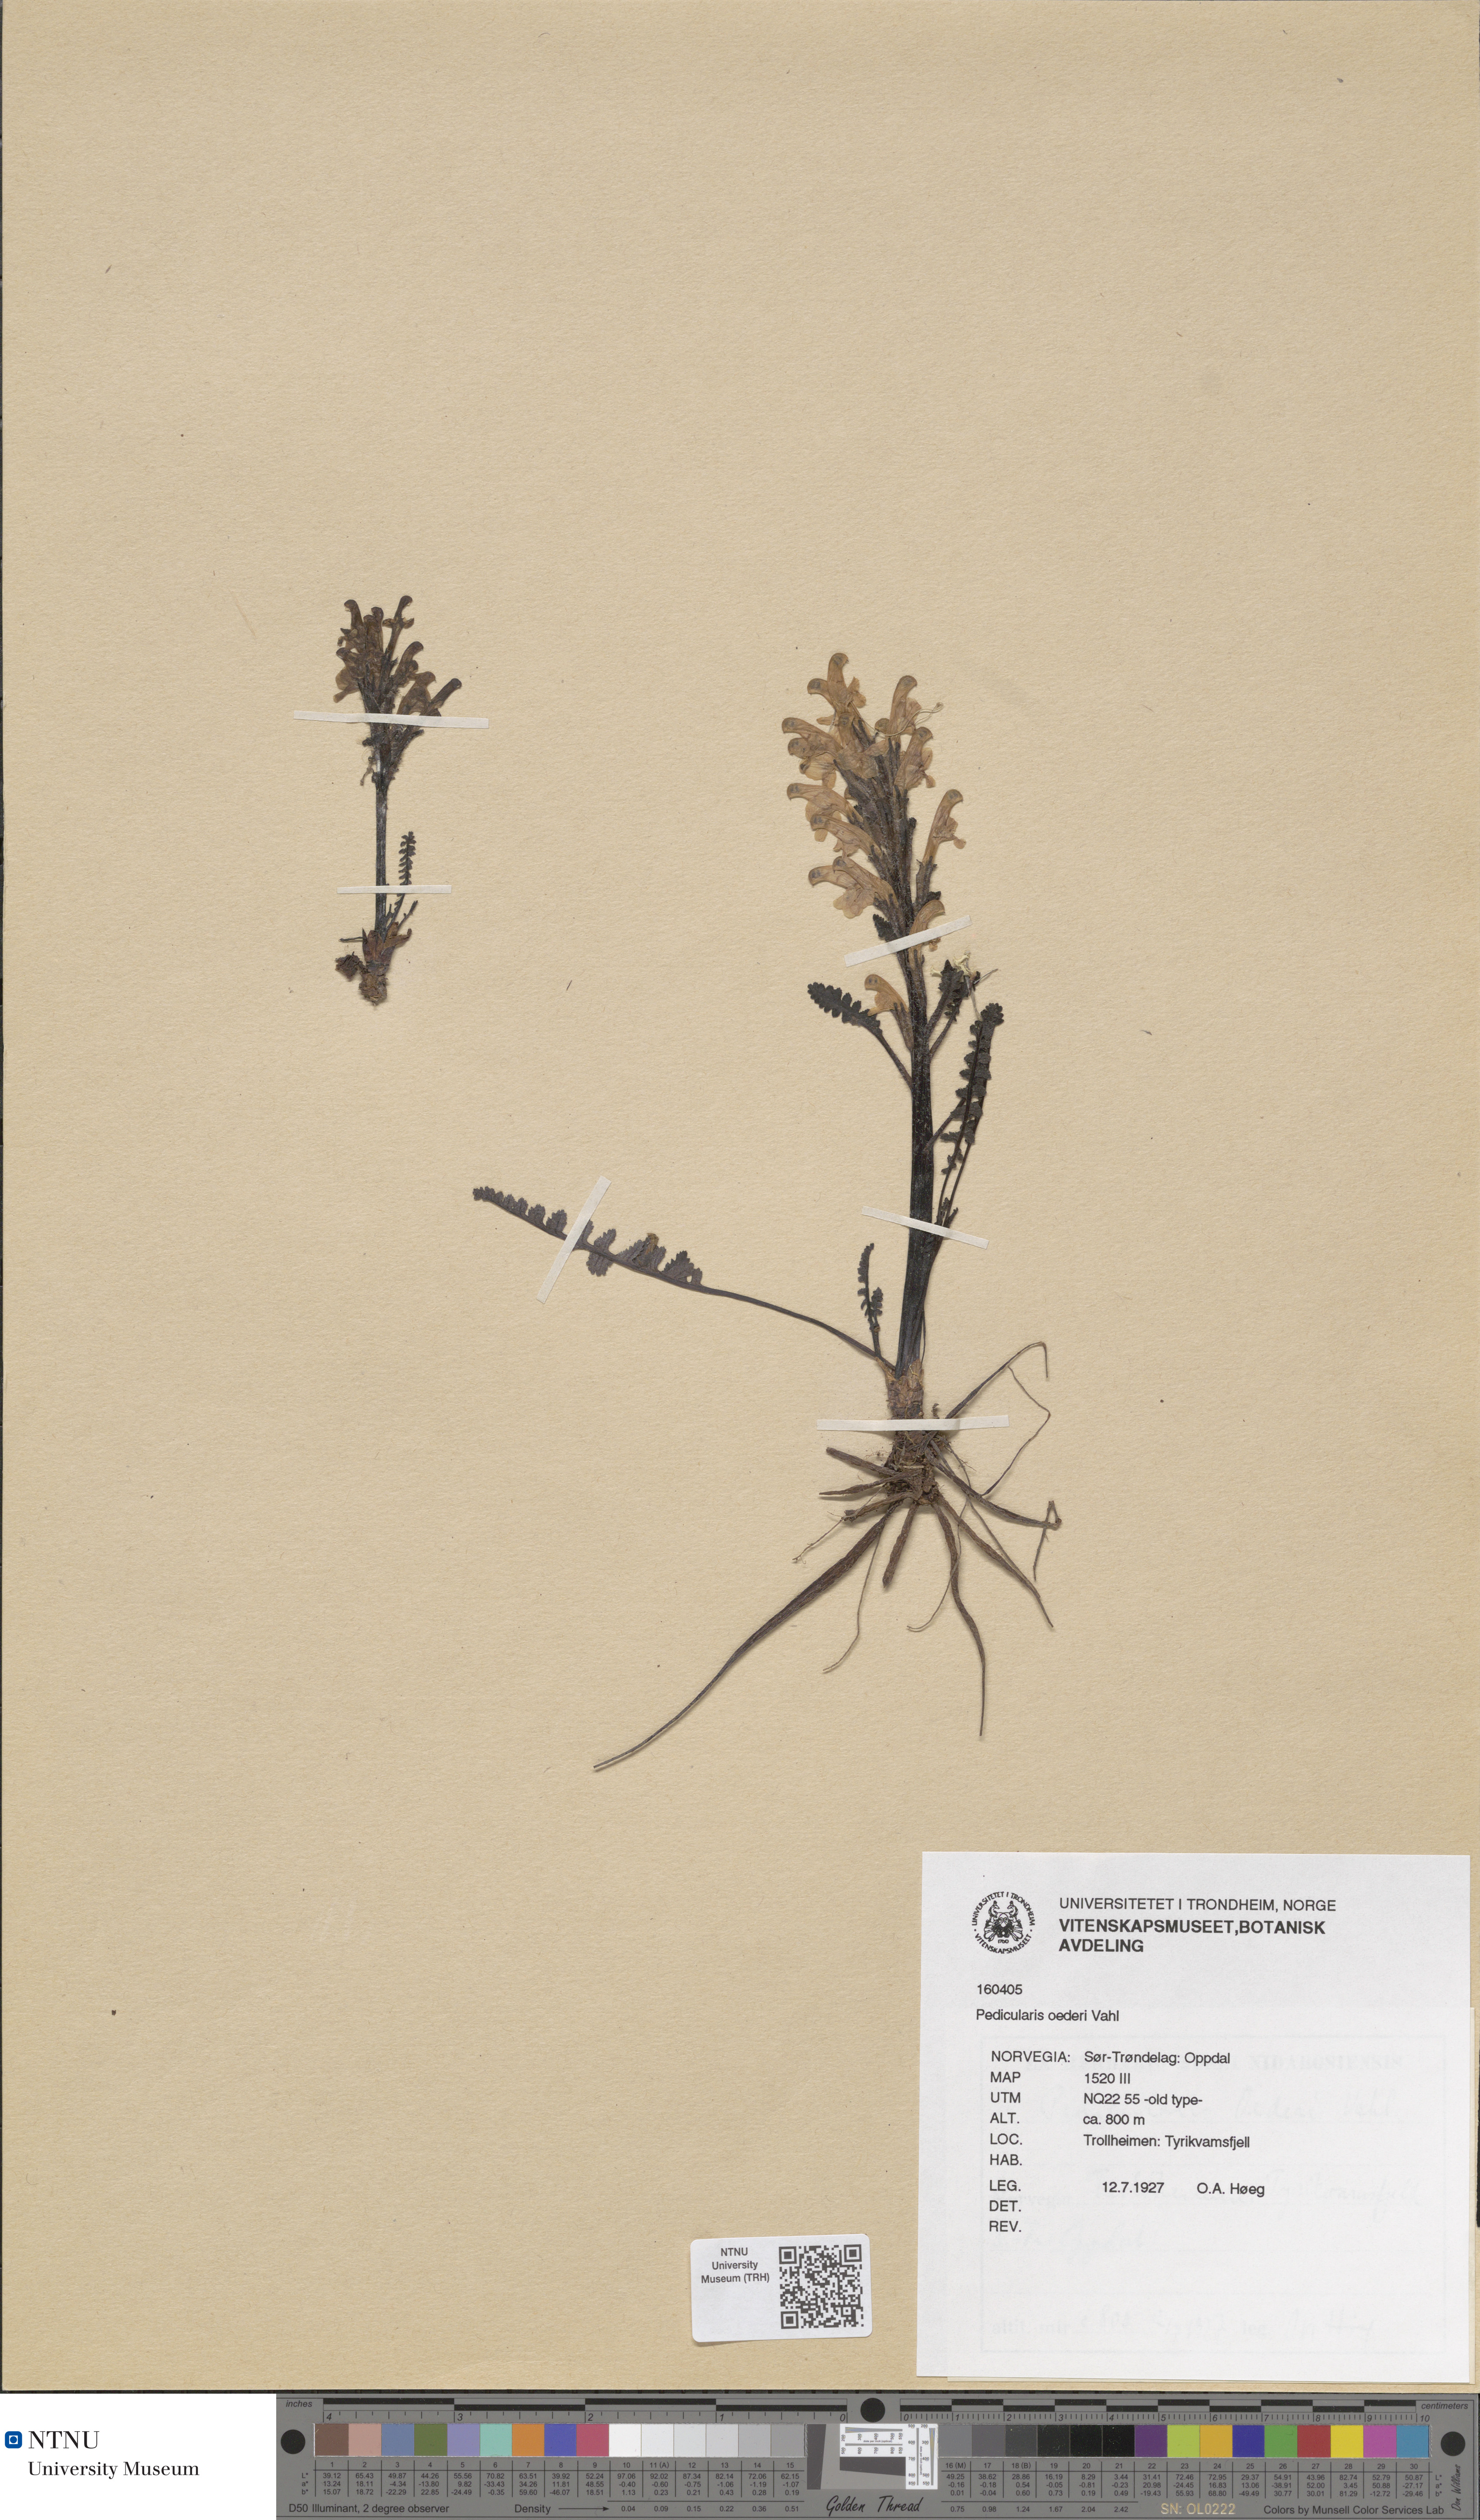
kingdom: Plantae
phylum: Tracheophyta
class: Magnoliopsida
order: Lamiales
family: Orobanchaceae
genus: Pedicularis
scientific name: Pedicularis oederi
